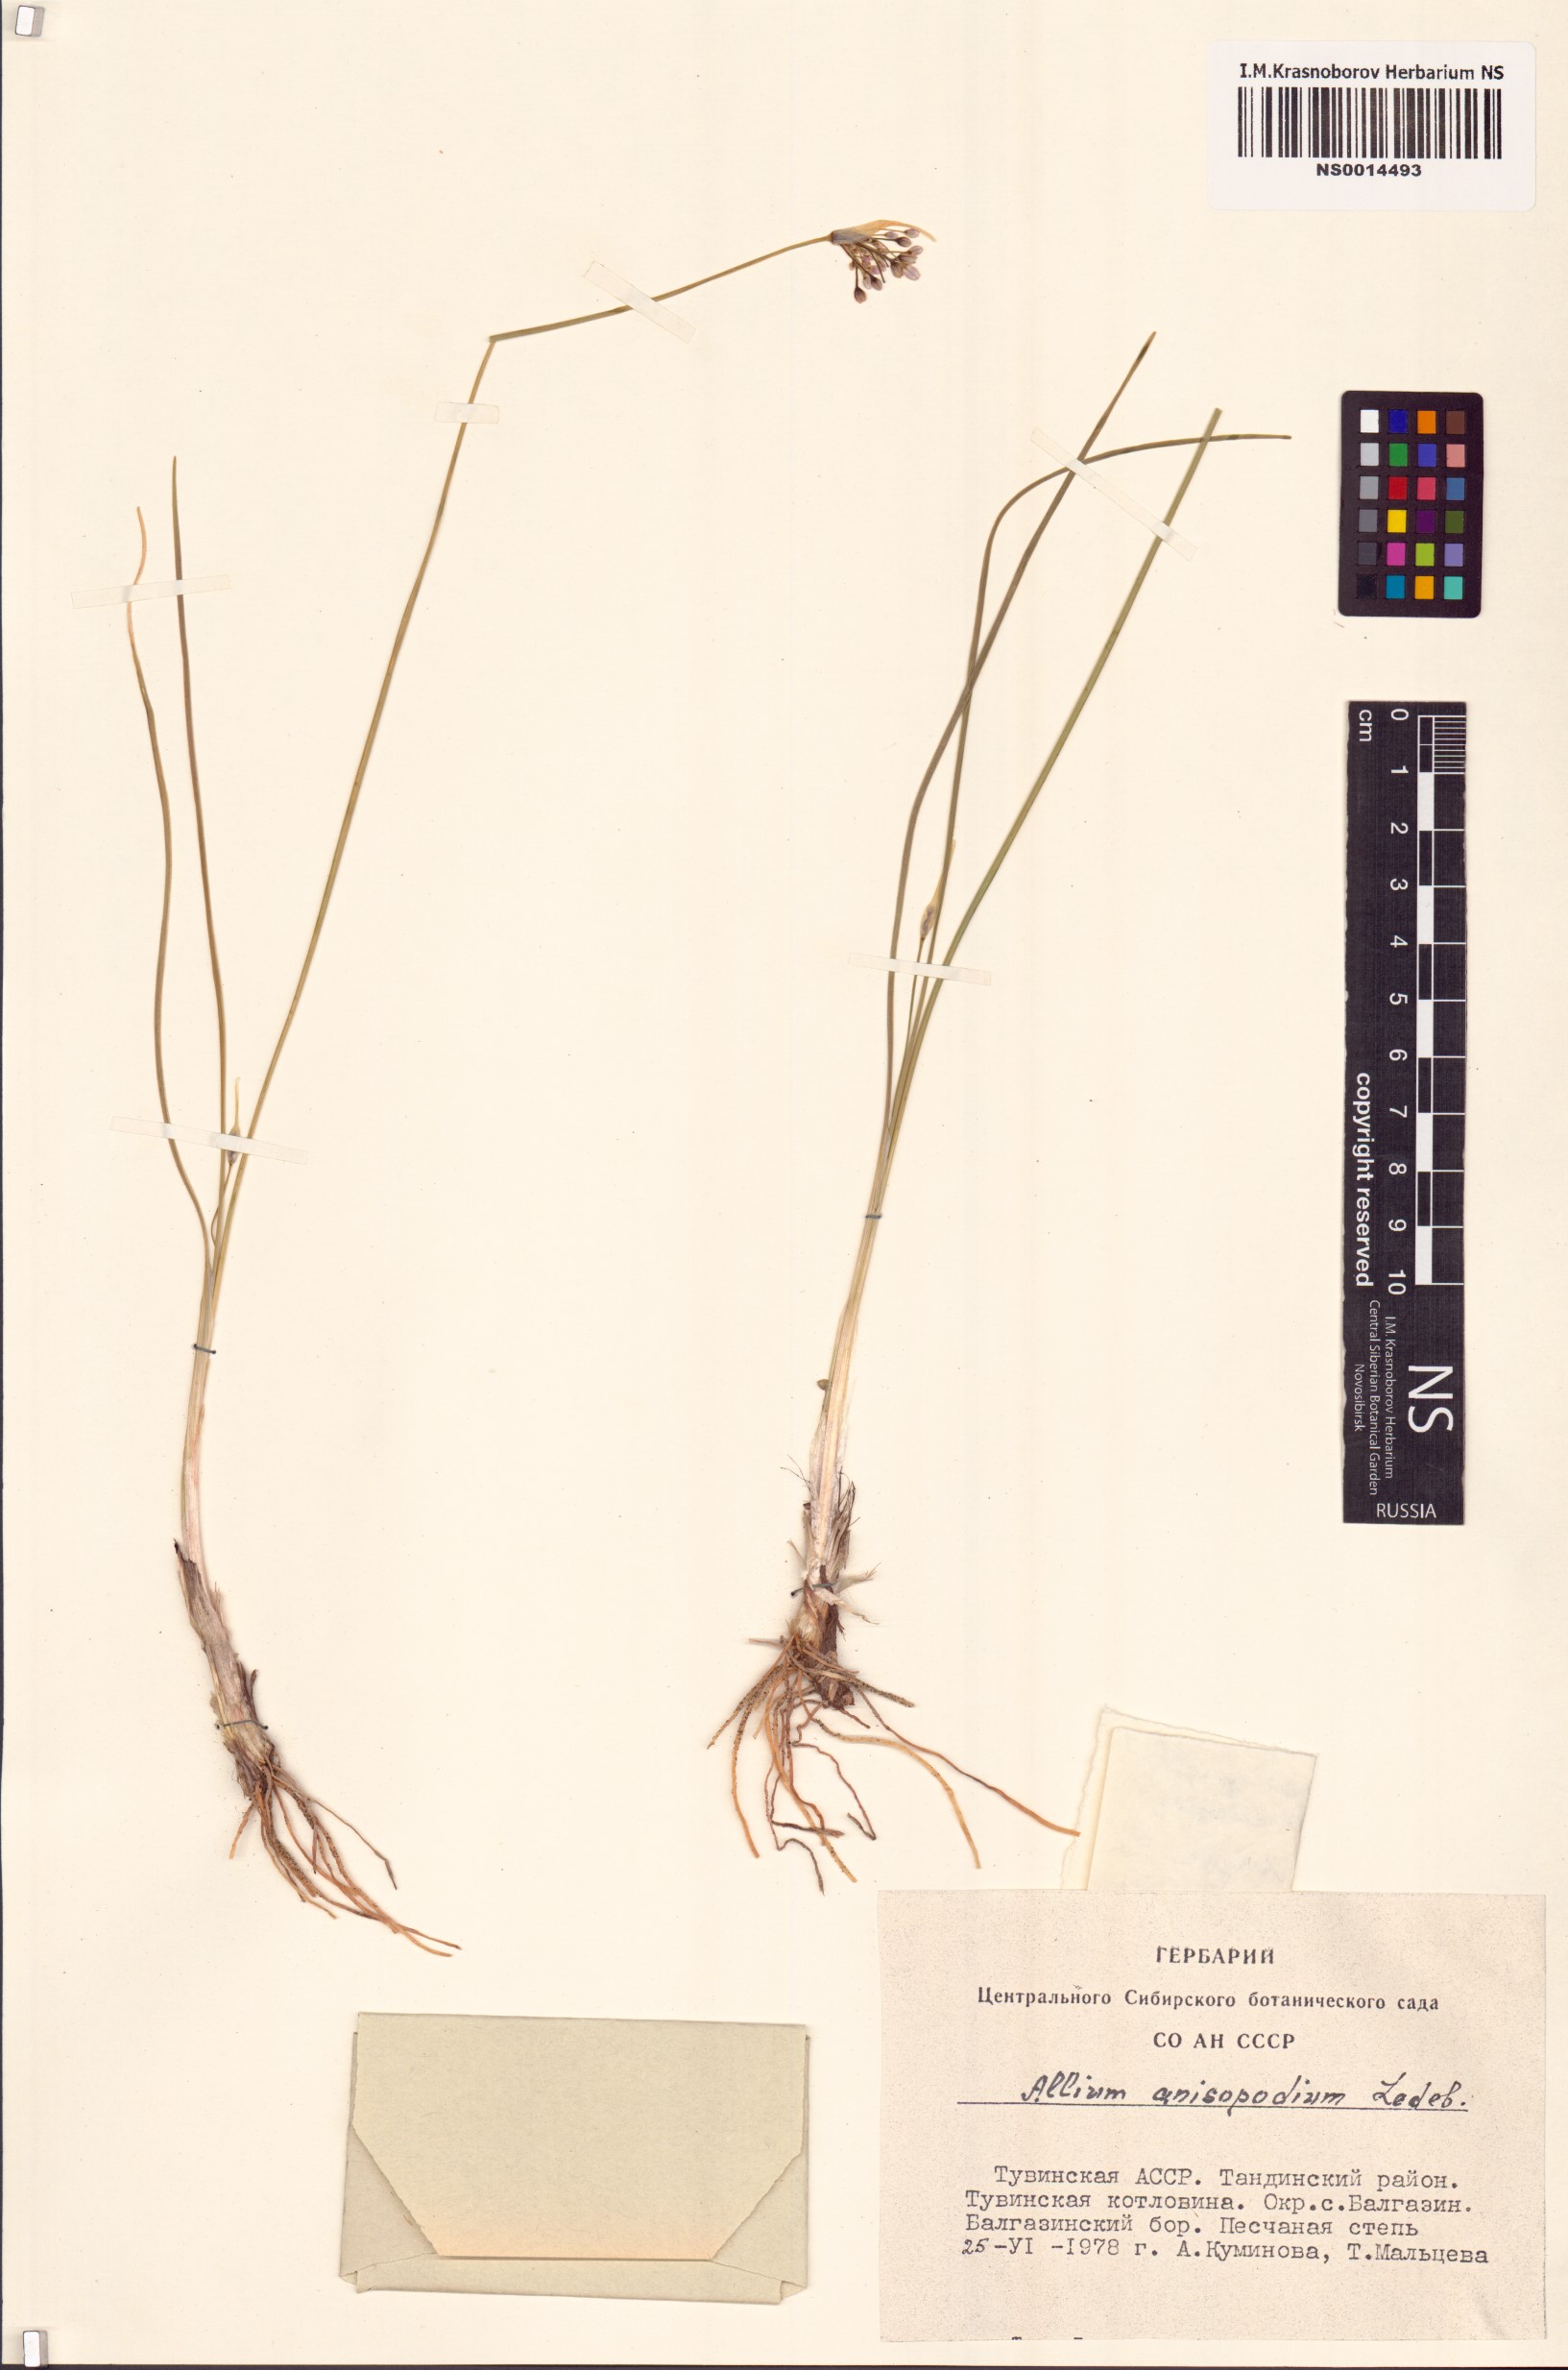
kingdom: Plantae
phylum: Tracheophyta
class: Liliopsida
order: Asparagales
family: Amaryllidaceae
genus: Allium
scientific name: Allium anisopodium
